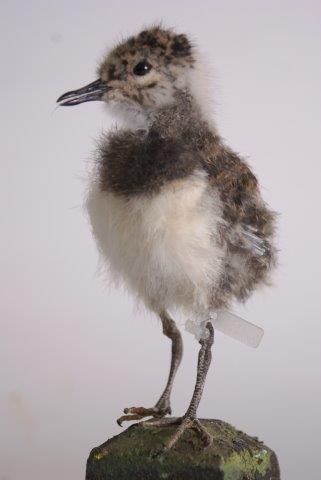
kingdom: Animalia
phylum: Chordata
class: Aves
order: Charadriiformes
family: Charadriidae
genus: Vanellus
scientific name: Vanellus vanellus
